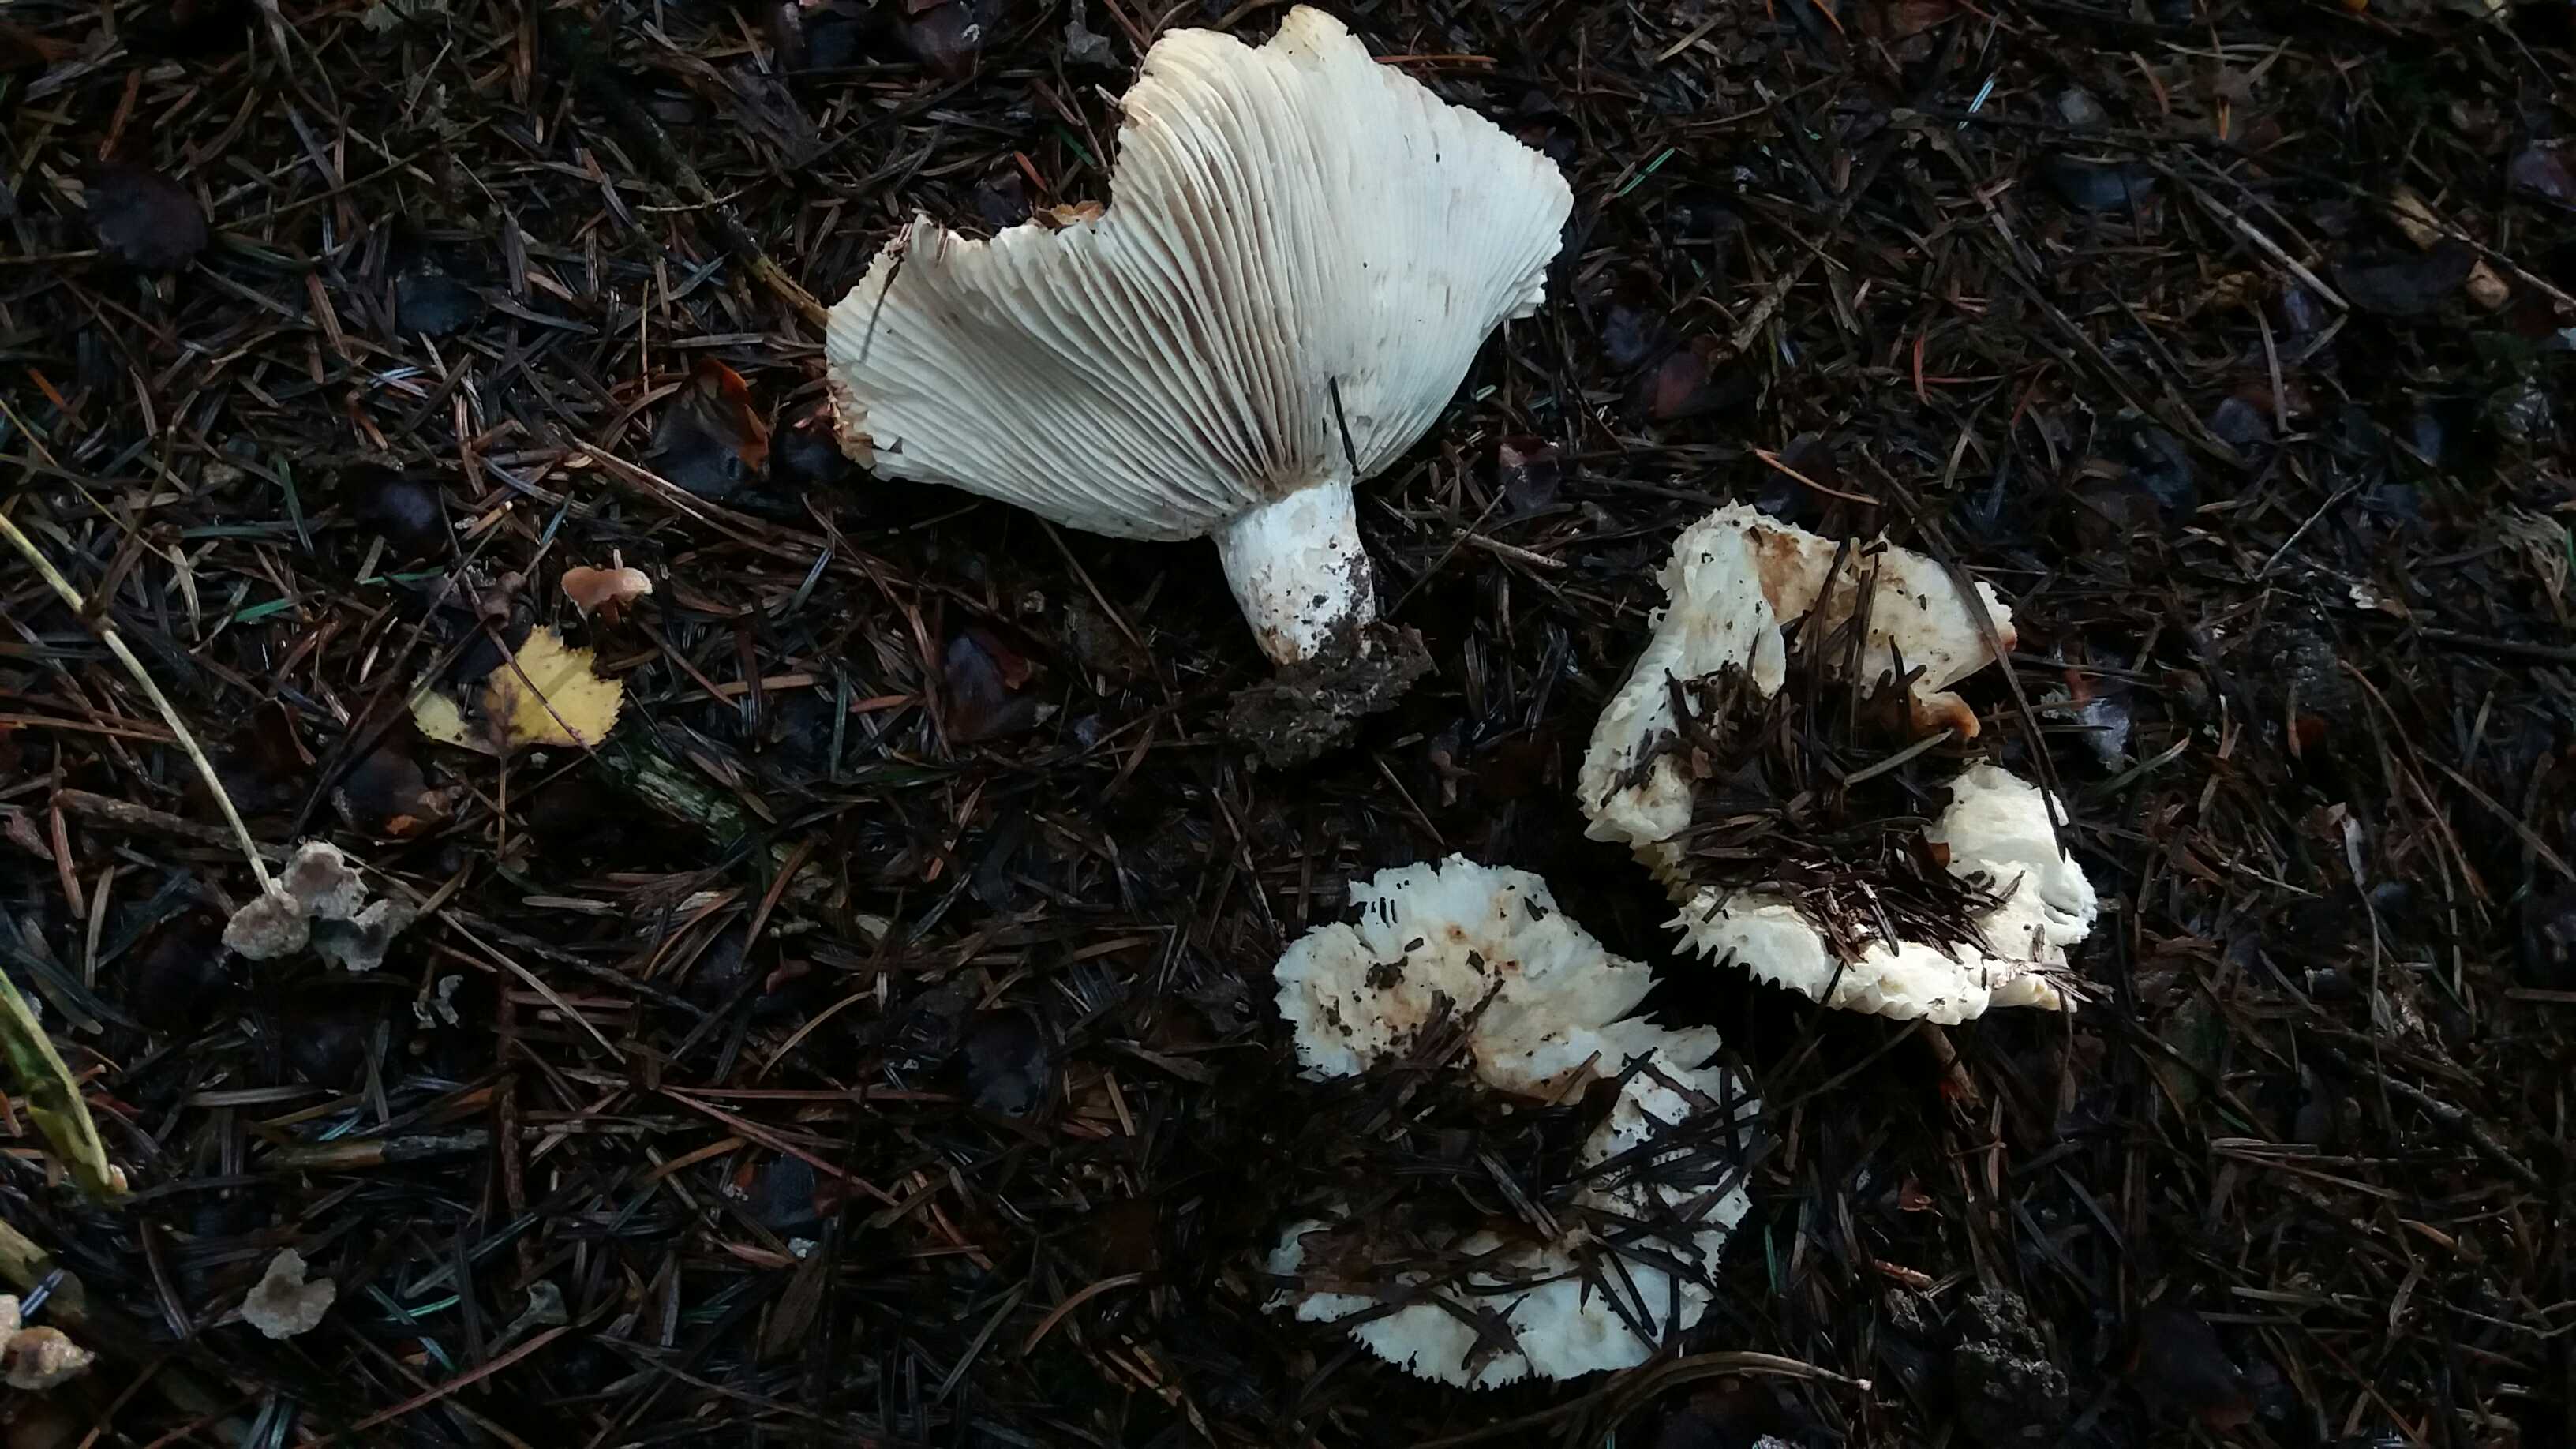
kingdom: Fungi
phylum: Basidiomycota
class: Agaricomycetes
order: Russulales
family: Russulaceae
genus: Russula
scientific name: Russula chloroides
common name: grønhalset tragt-skørhat
